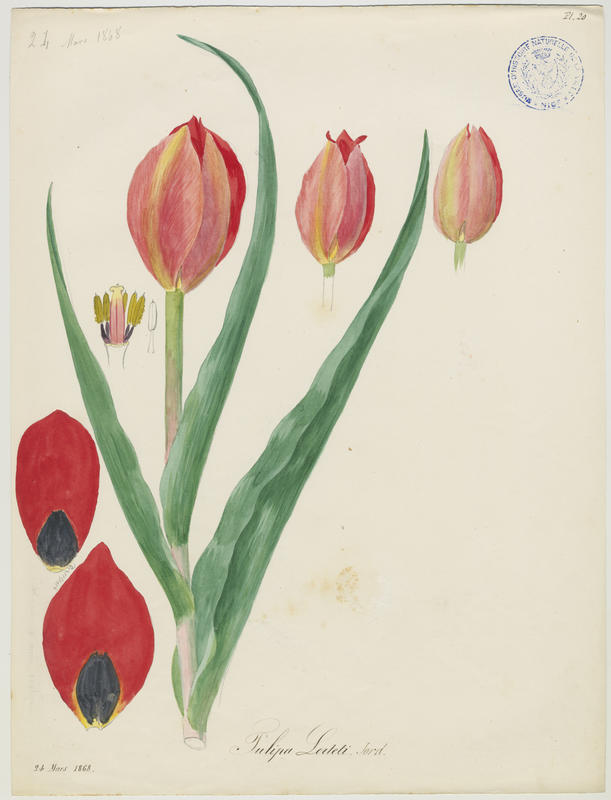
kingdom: Plantae
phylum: Tracheophyta
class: Liliopsida
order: Liliales
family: Liliaceae
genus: Tulipa
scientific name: Tulipa agenensis
